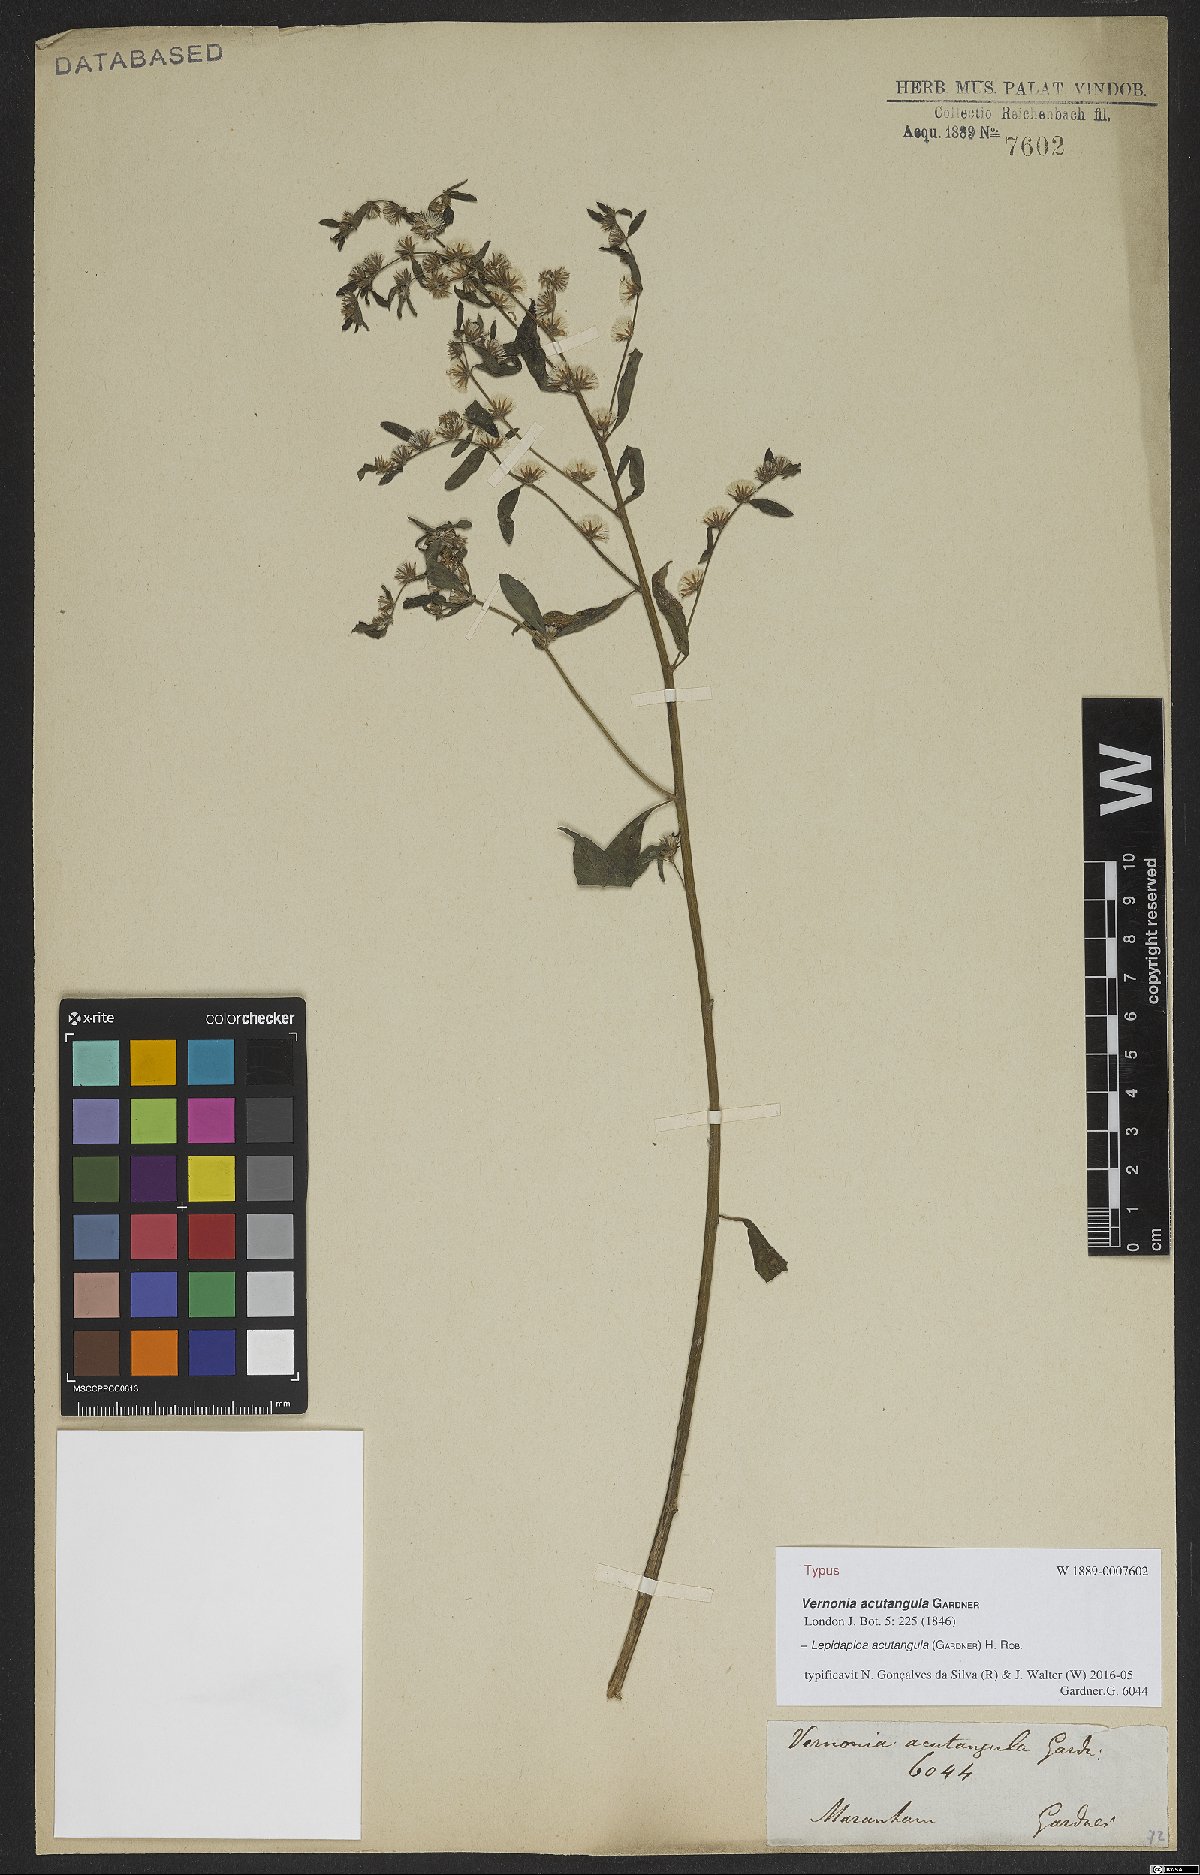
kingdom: Plantae
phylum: Tracheophyta
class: Magnoliopsida
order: Asterales
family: Asteraceae
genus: Lepidaploa
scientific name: Lepidaploa acutangula
